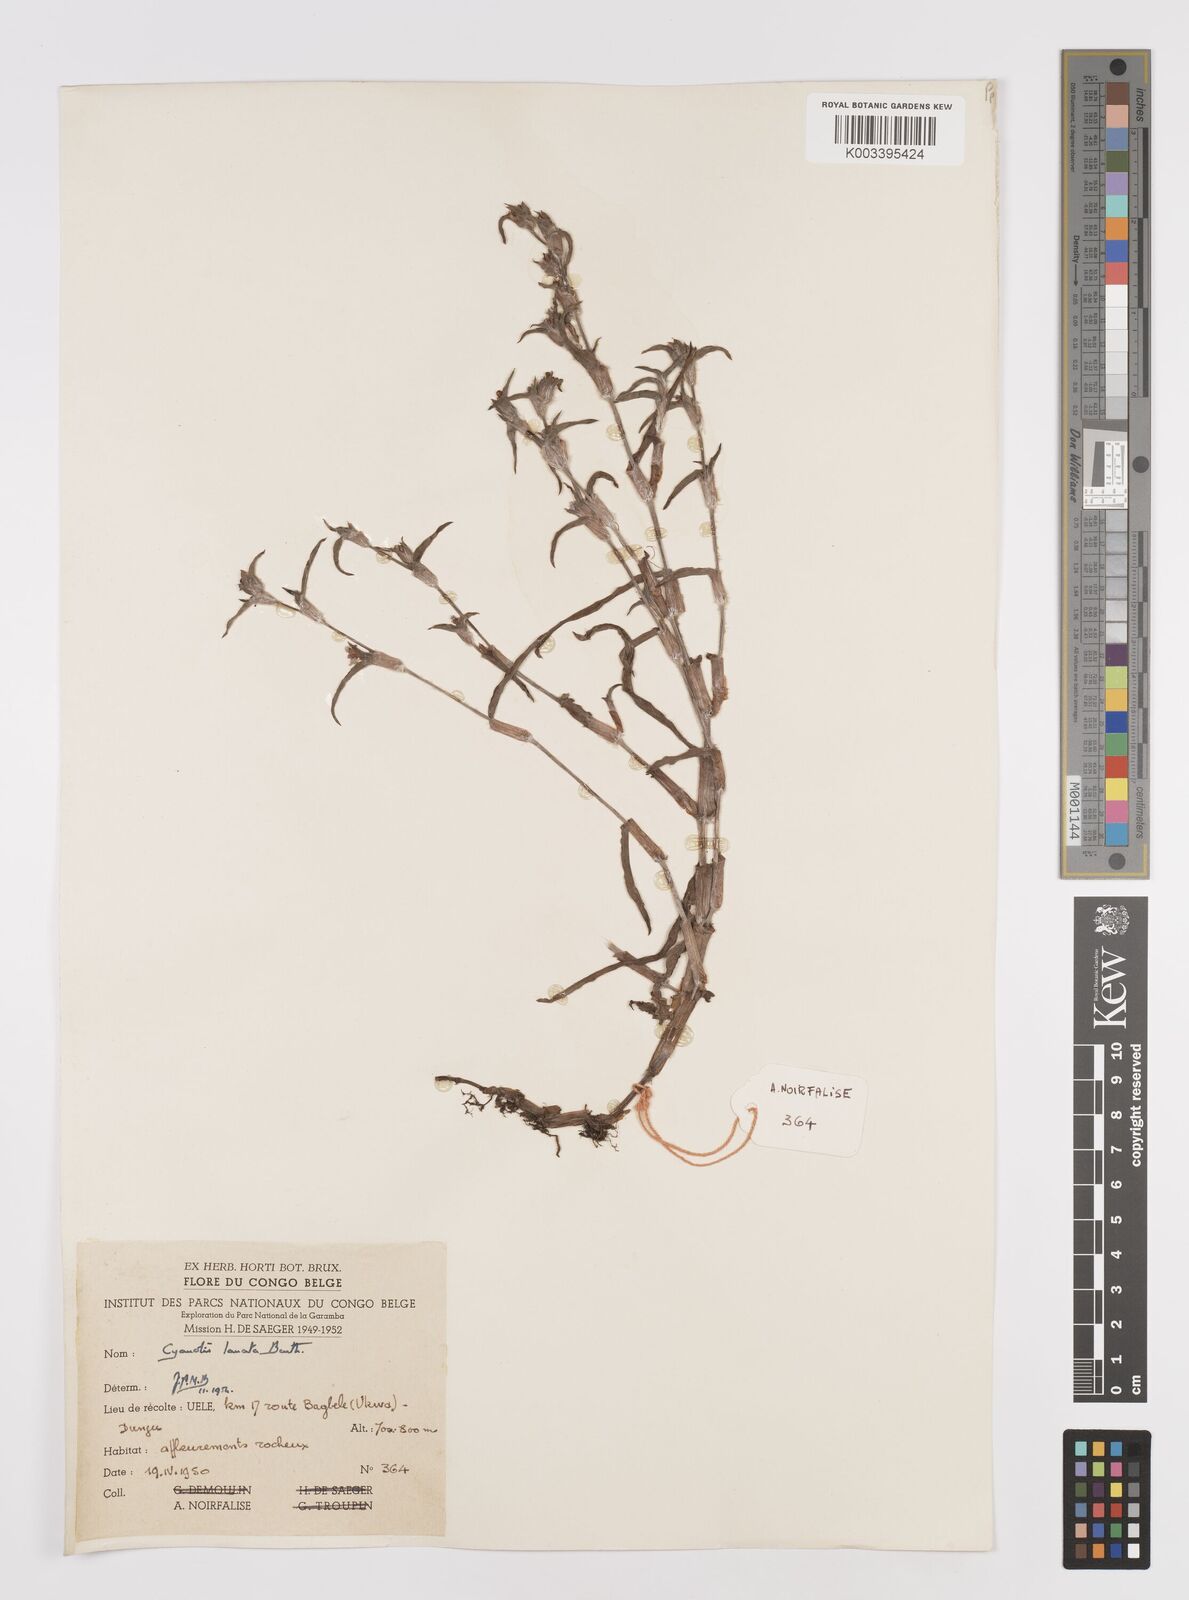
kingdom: Plantae
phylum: Tracheophyta
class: Liliopsida
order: Commelinales
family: Commelinaceae
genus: Cyanotis
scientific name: Cyanotis lanata
